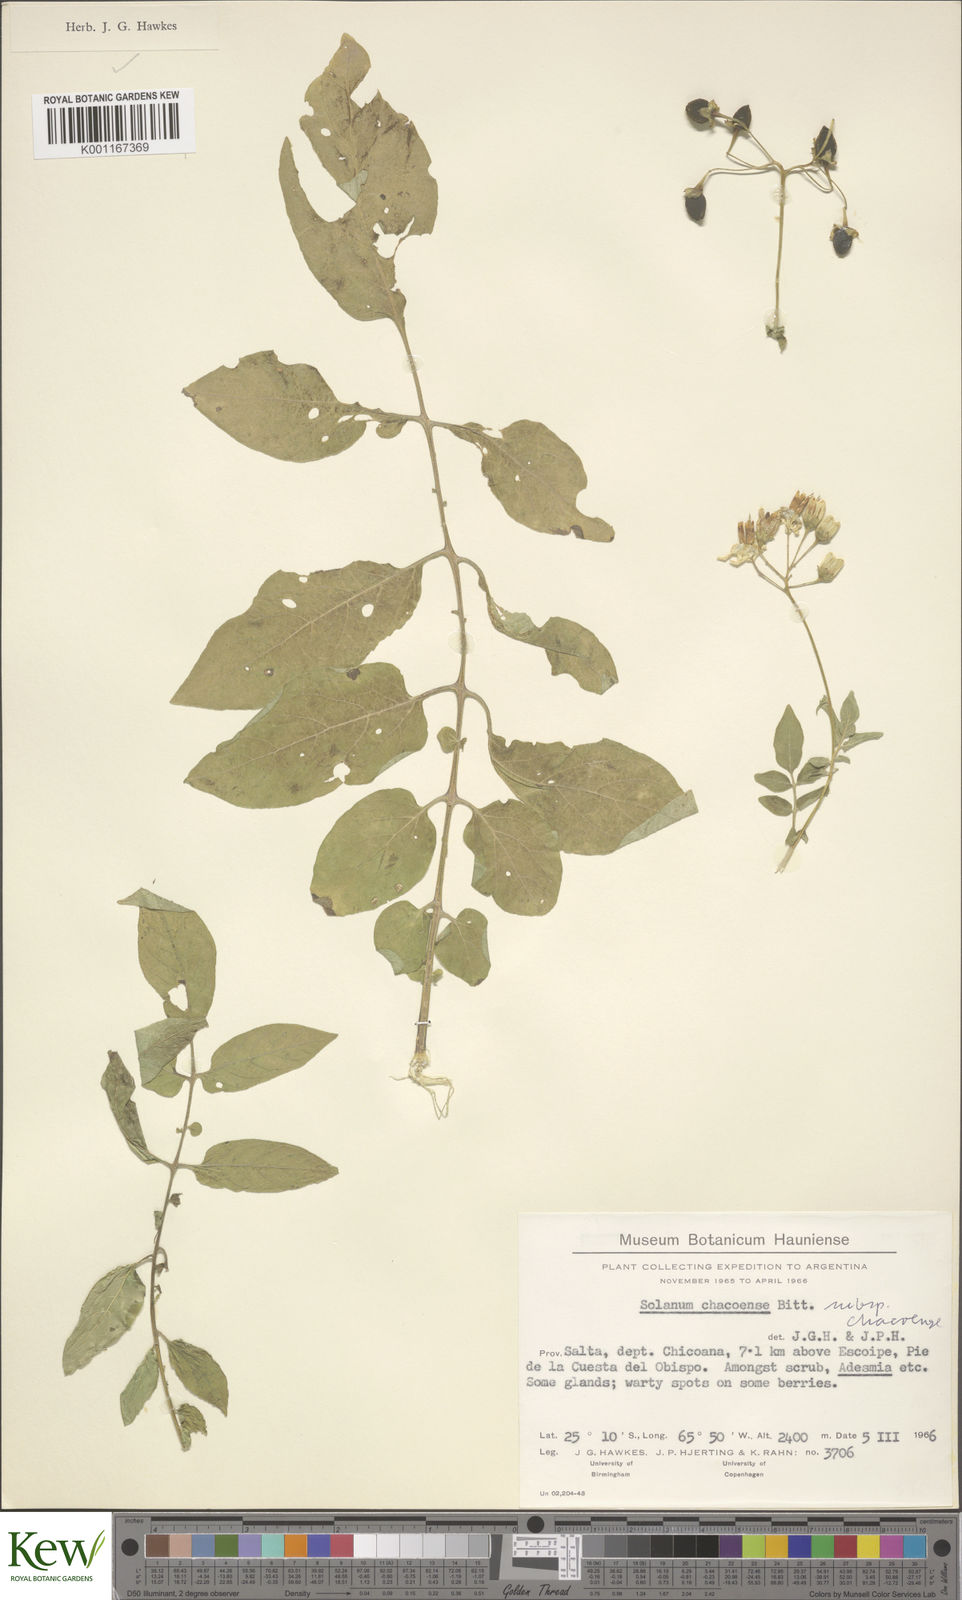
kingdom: Plantae
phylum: Tracheophyta
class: Magnoliopsida
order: Solanales
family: Solanaceae
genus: Solanum
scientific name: Solanum chacoense
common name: Chaco potato
